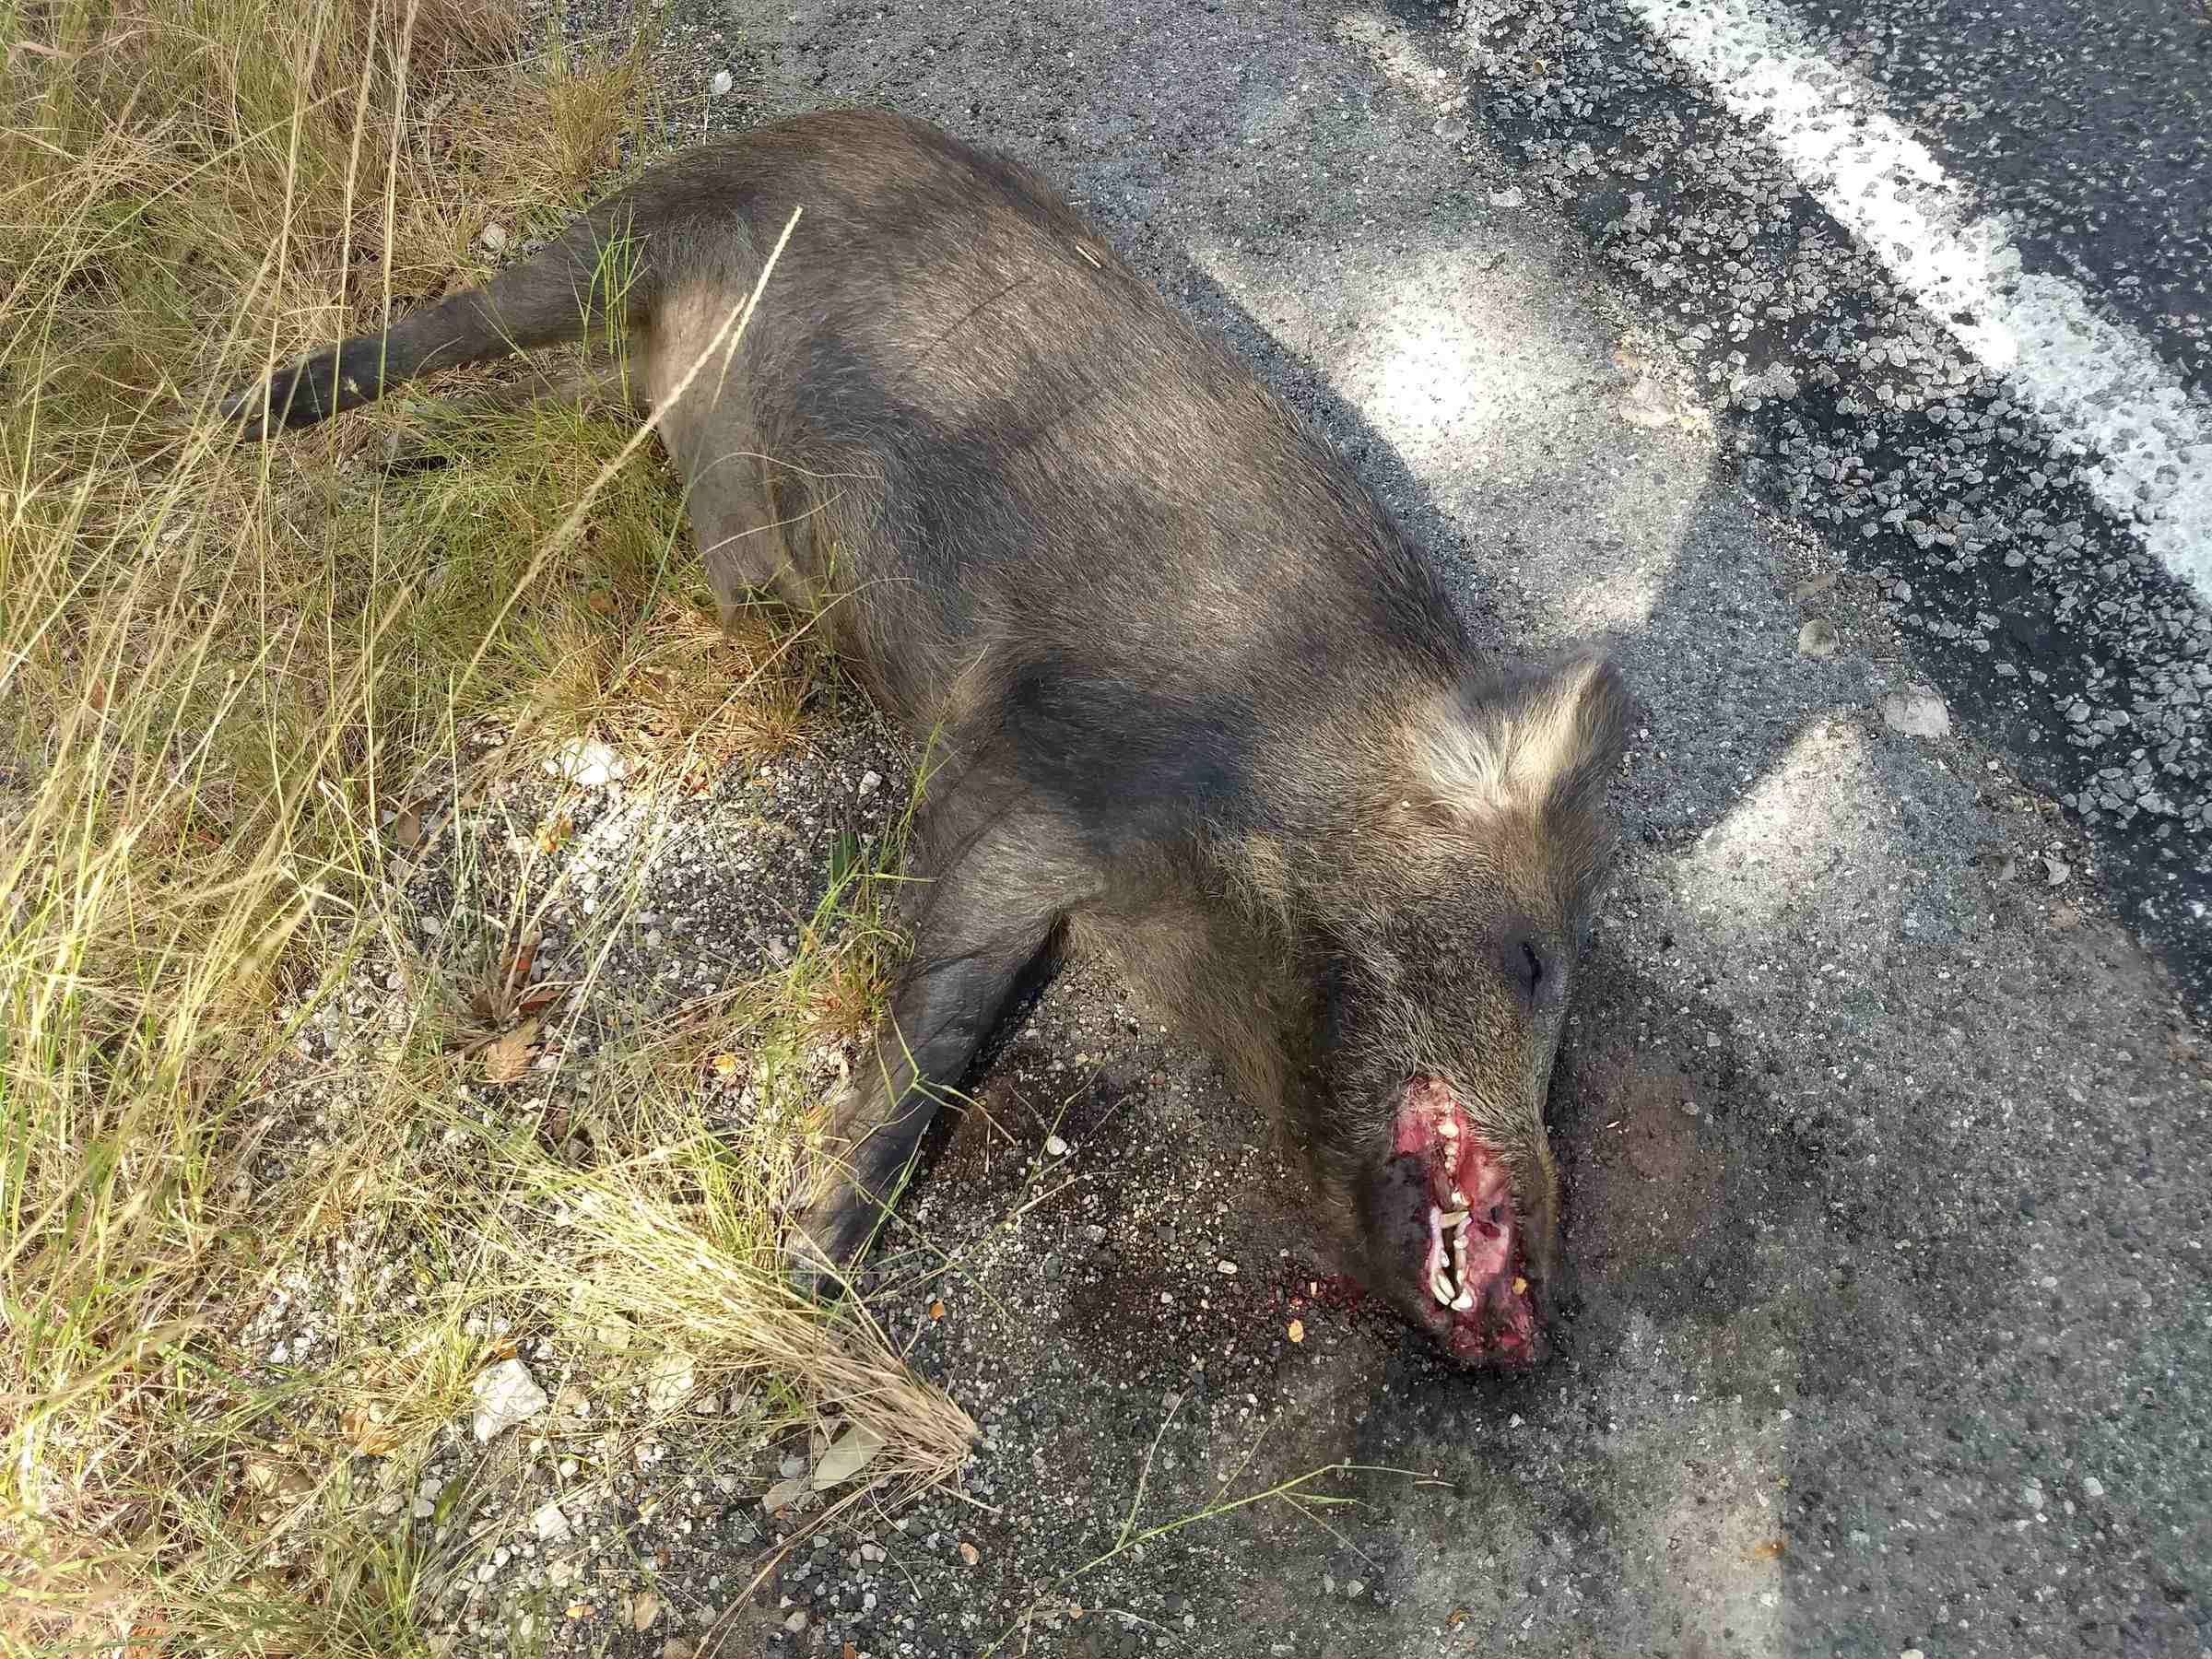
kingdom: Animalia
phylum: Chordata
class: Mammalia
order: Artiodactyla
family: Suidae
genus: Sus
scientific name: Sus scrofa
